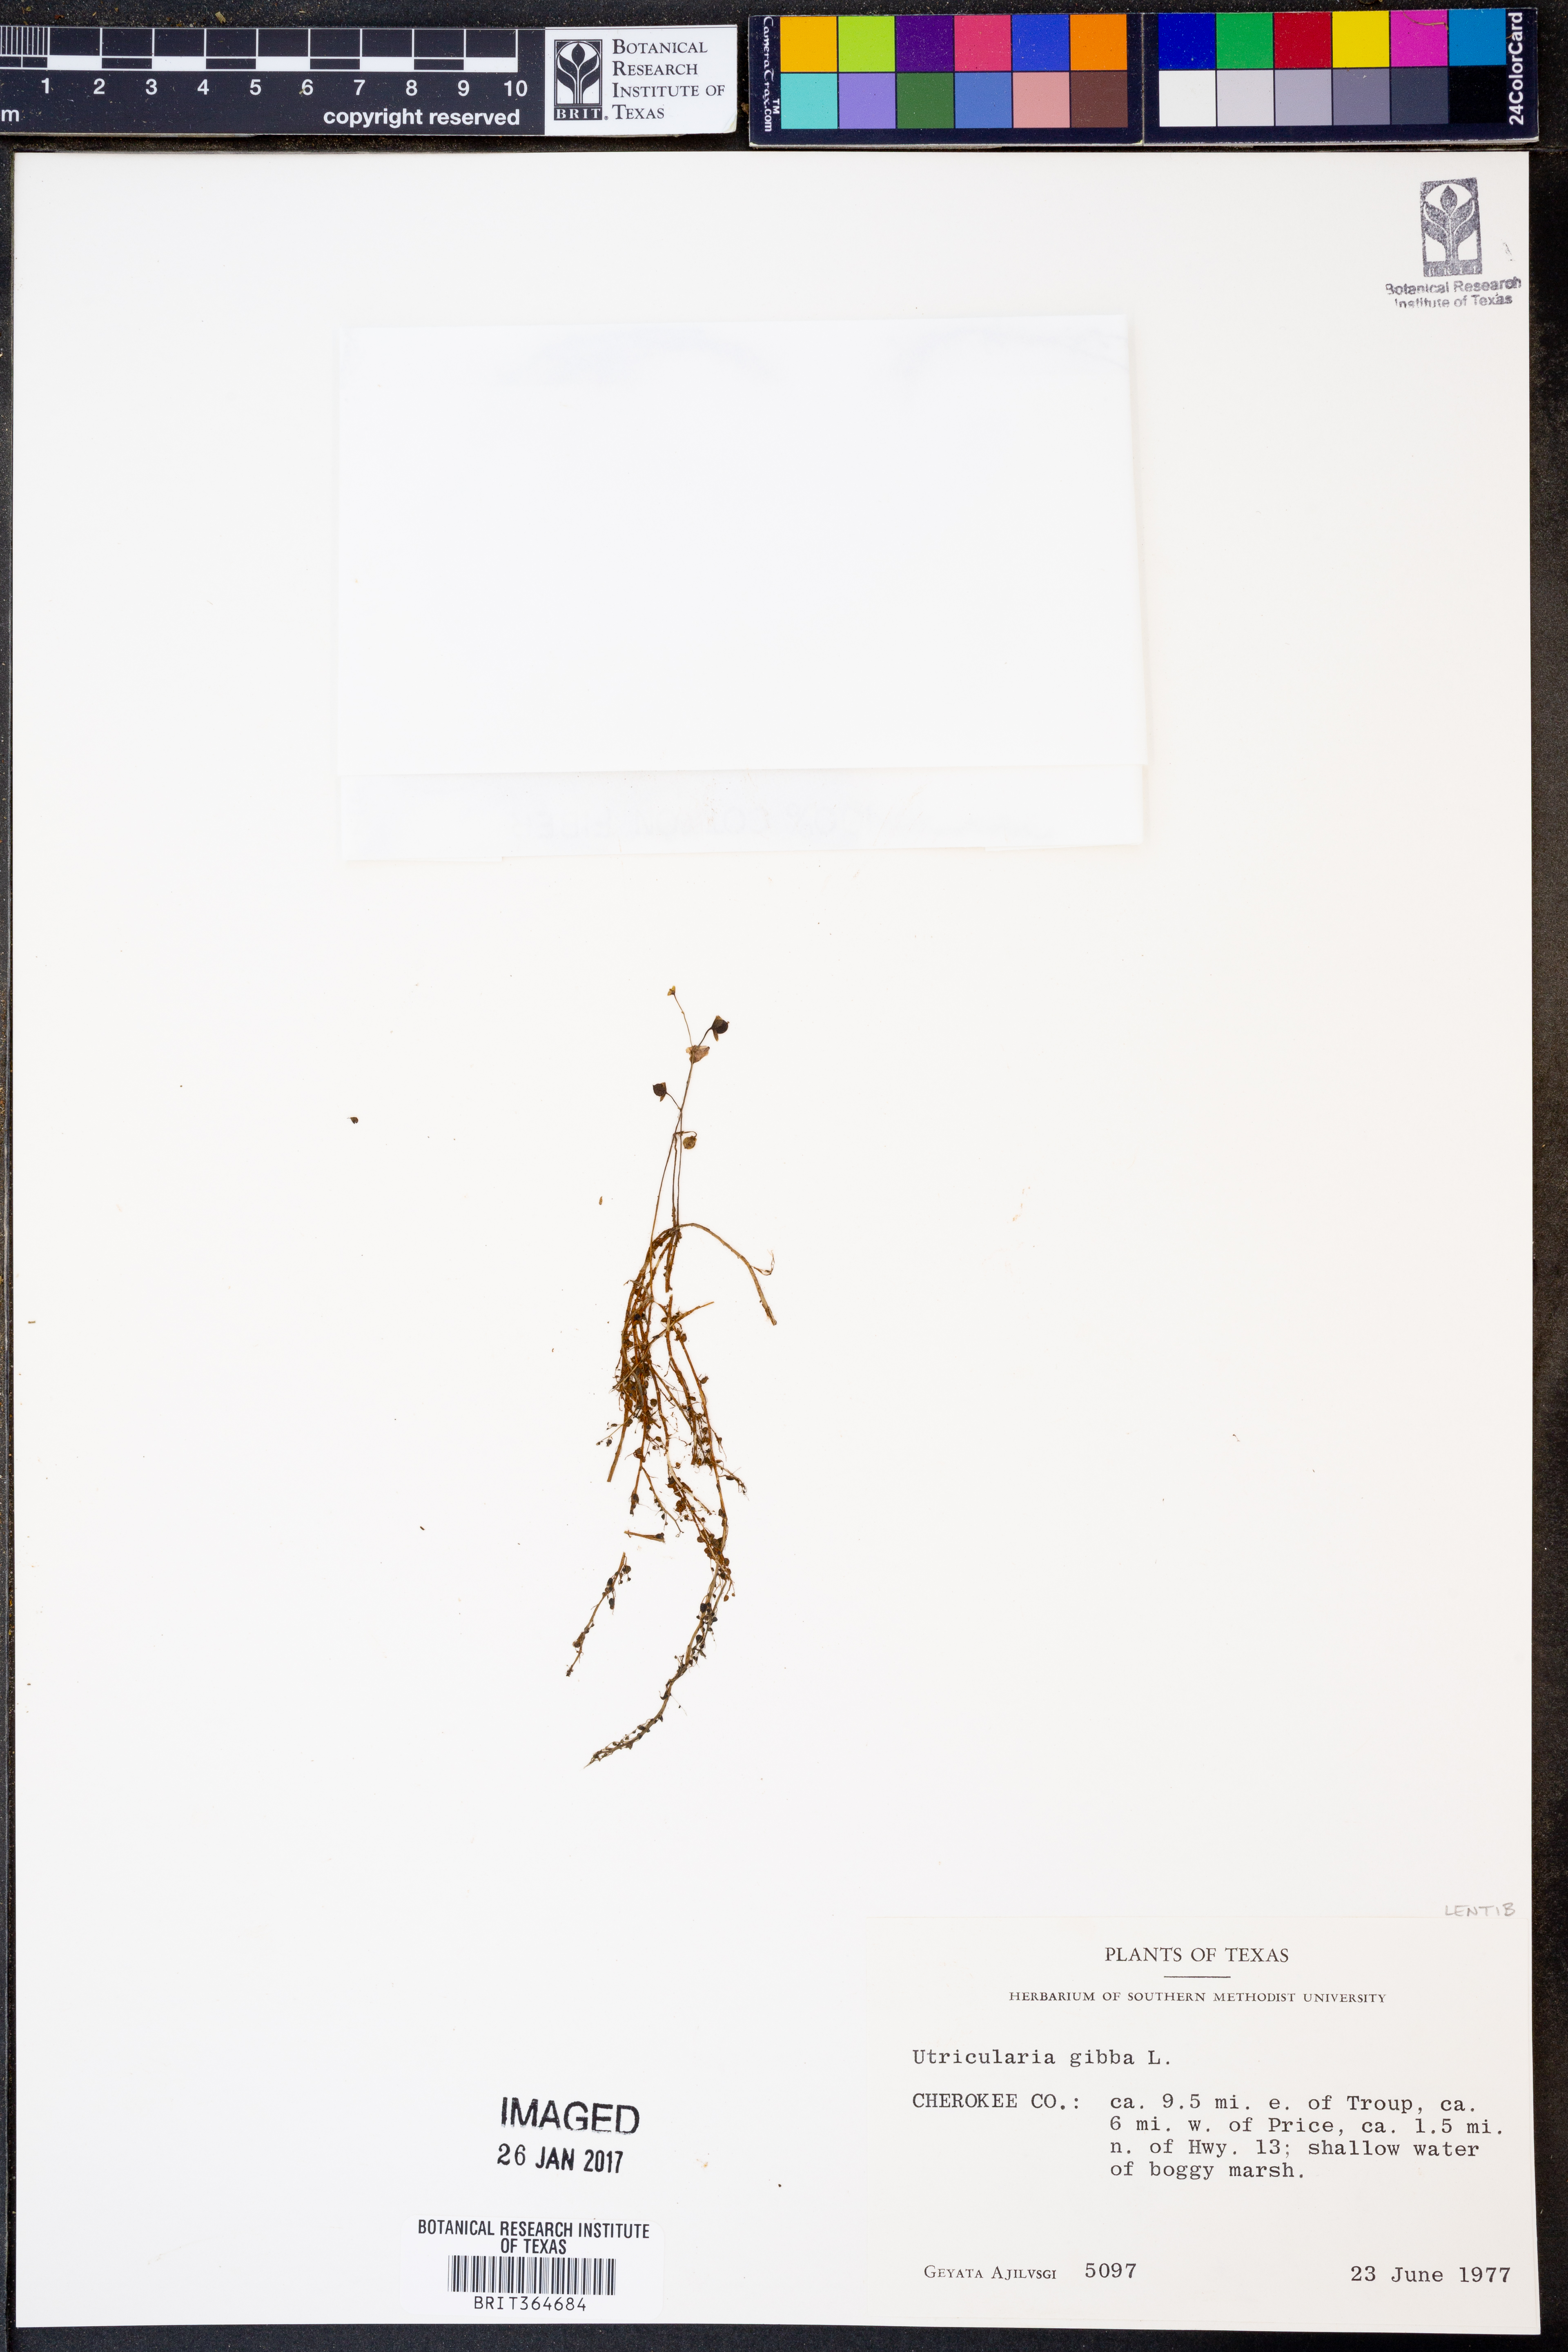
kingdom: Plantae
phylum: Tracheophyta
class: Magnoliopsida
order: Lamiales
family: Lentibulariaceae
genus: Utricularia
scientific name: Utricularia gibba
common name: Humped bladderwort
